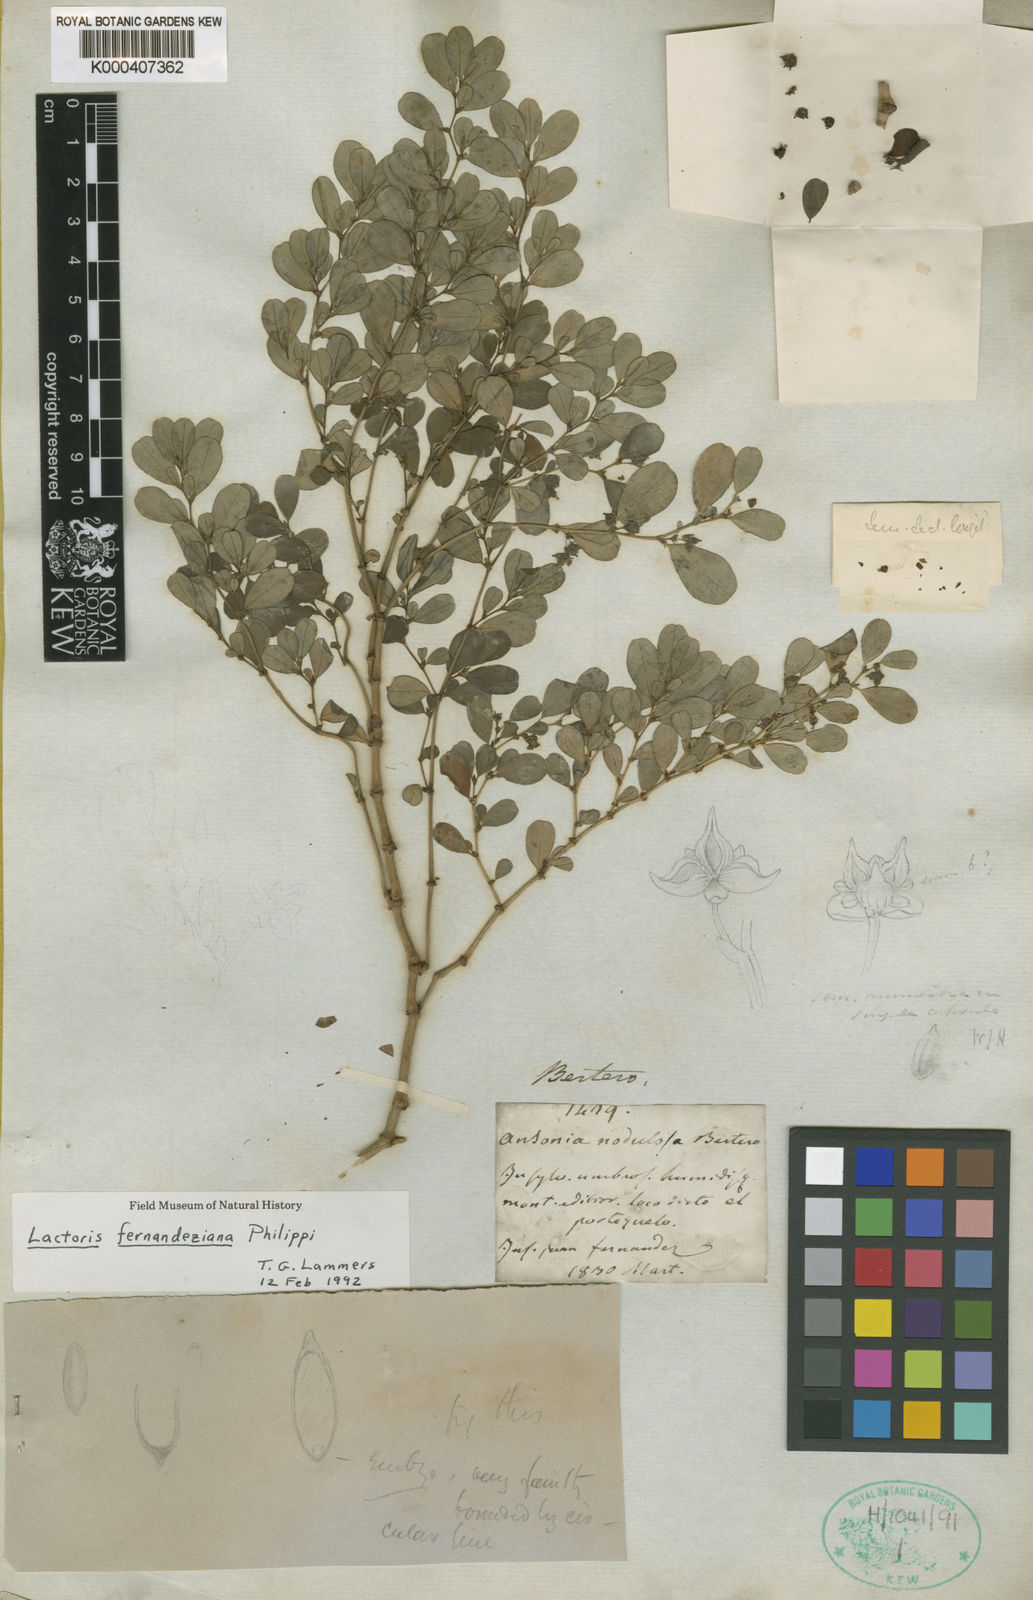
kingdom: Plantae
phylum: Tracheophyta
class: Magnoliopsida
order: Piperales
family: Aristolochiaceae
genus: Lactoris
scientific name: Lactoris fernandeziana
